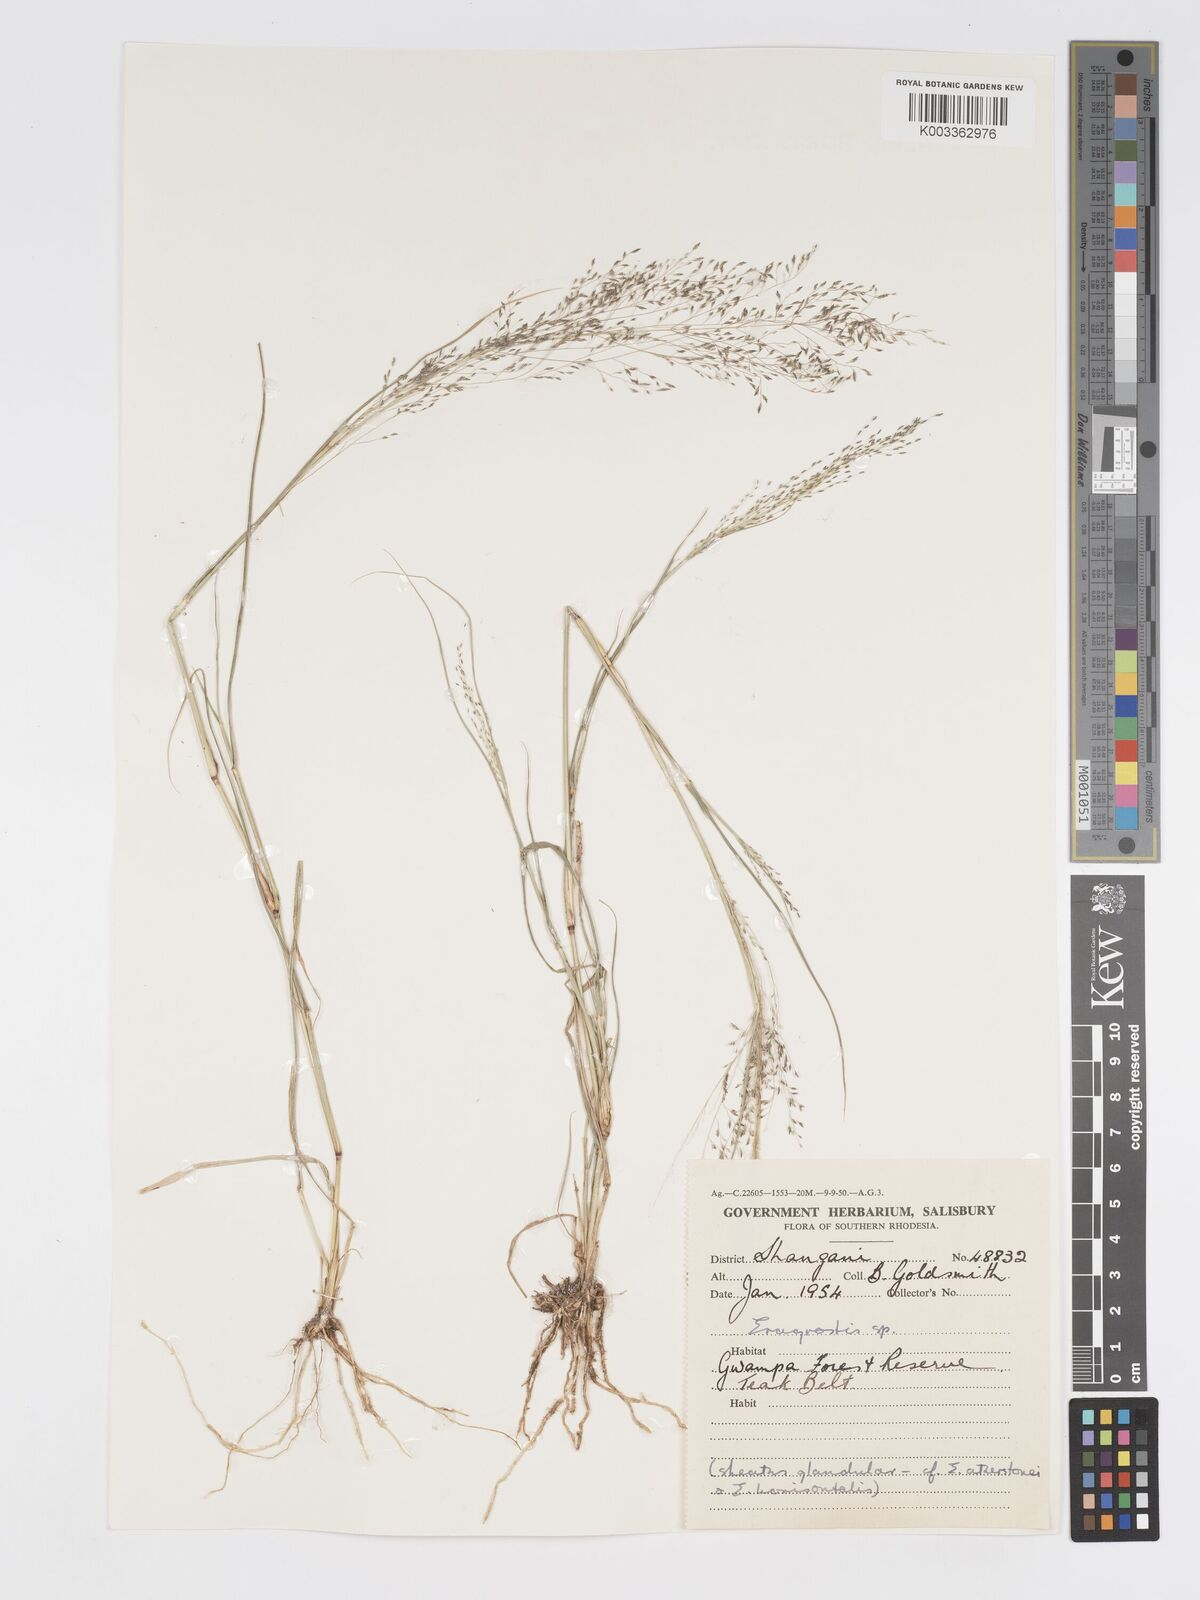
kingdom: Plantae
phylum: Tracheophyta
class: Liliopsida
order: Poales
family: Poaceae
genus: Eragrostis
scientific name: Eragrostis cylindriflora
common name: Cylinderflower lovegrass
